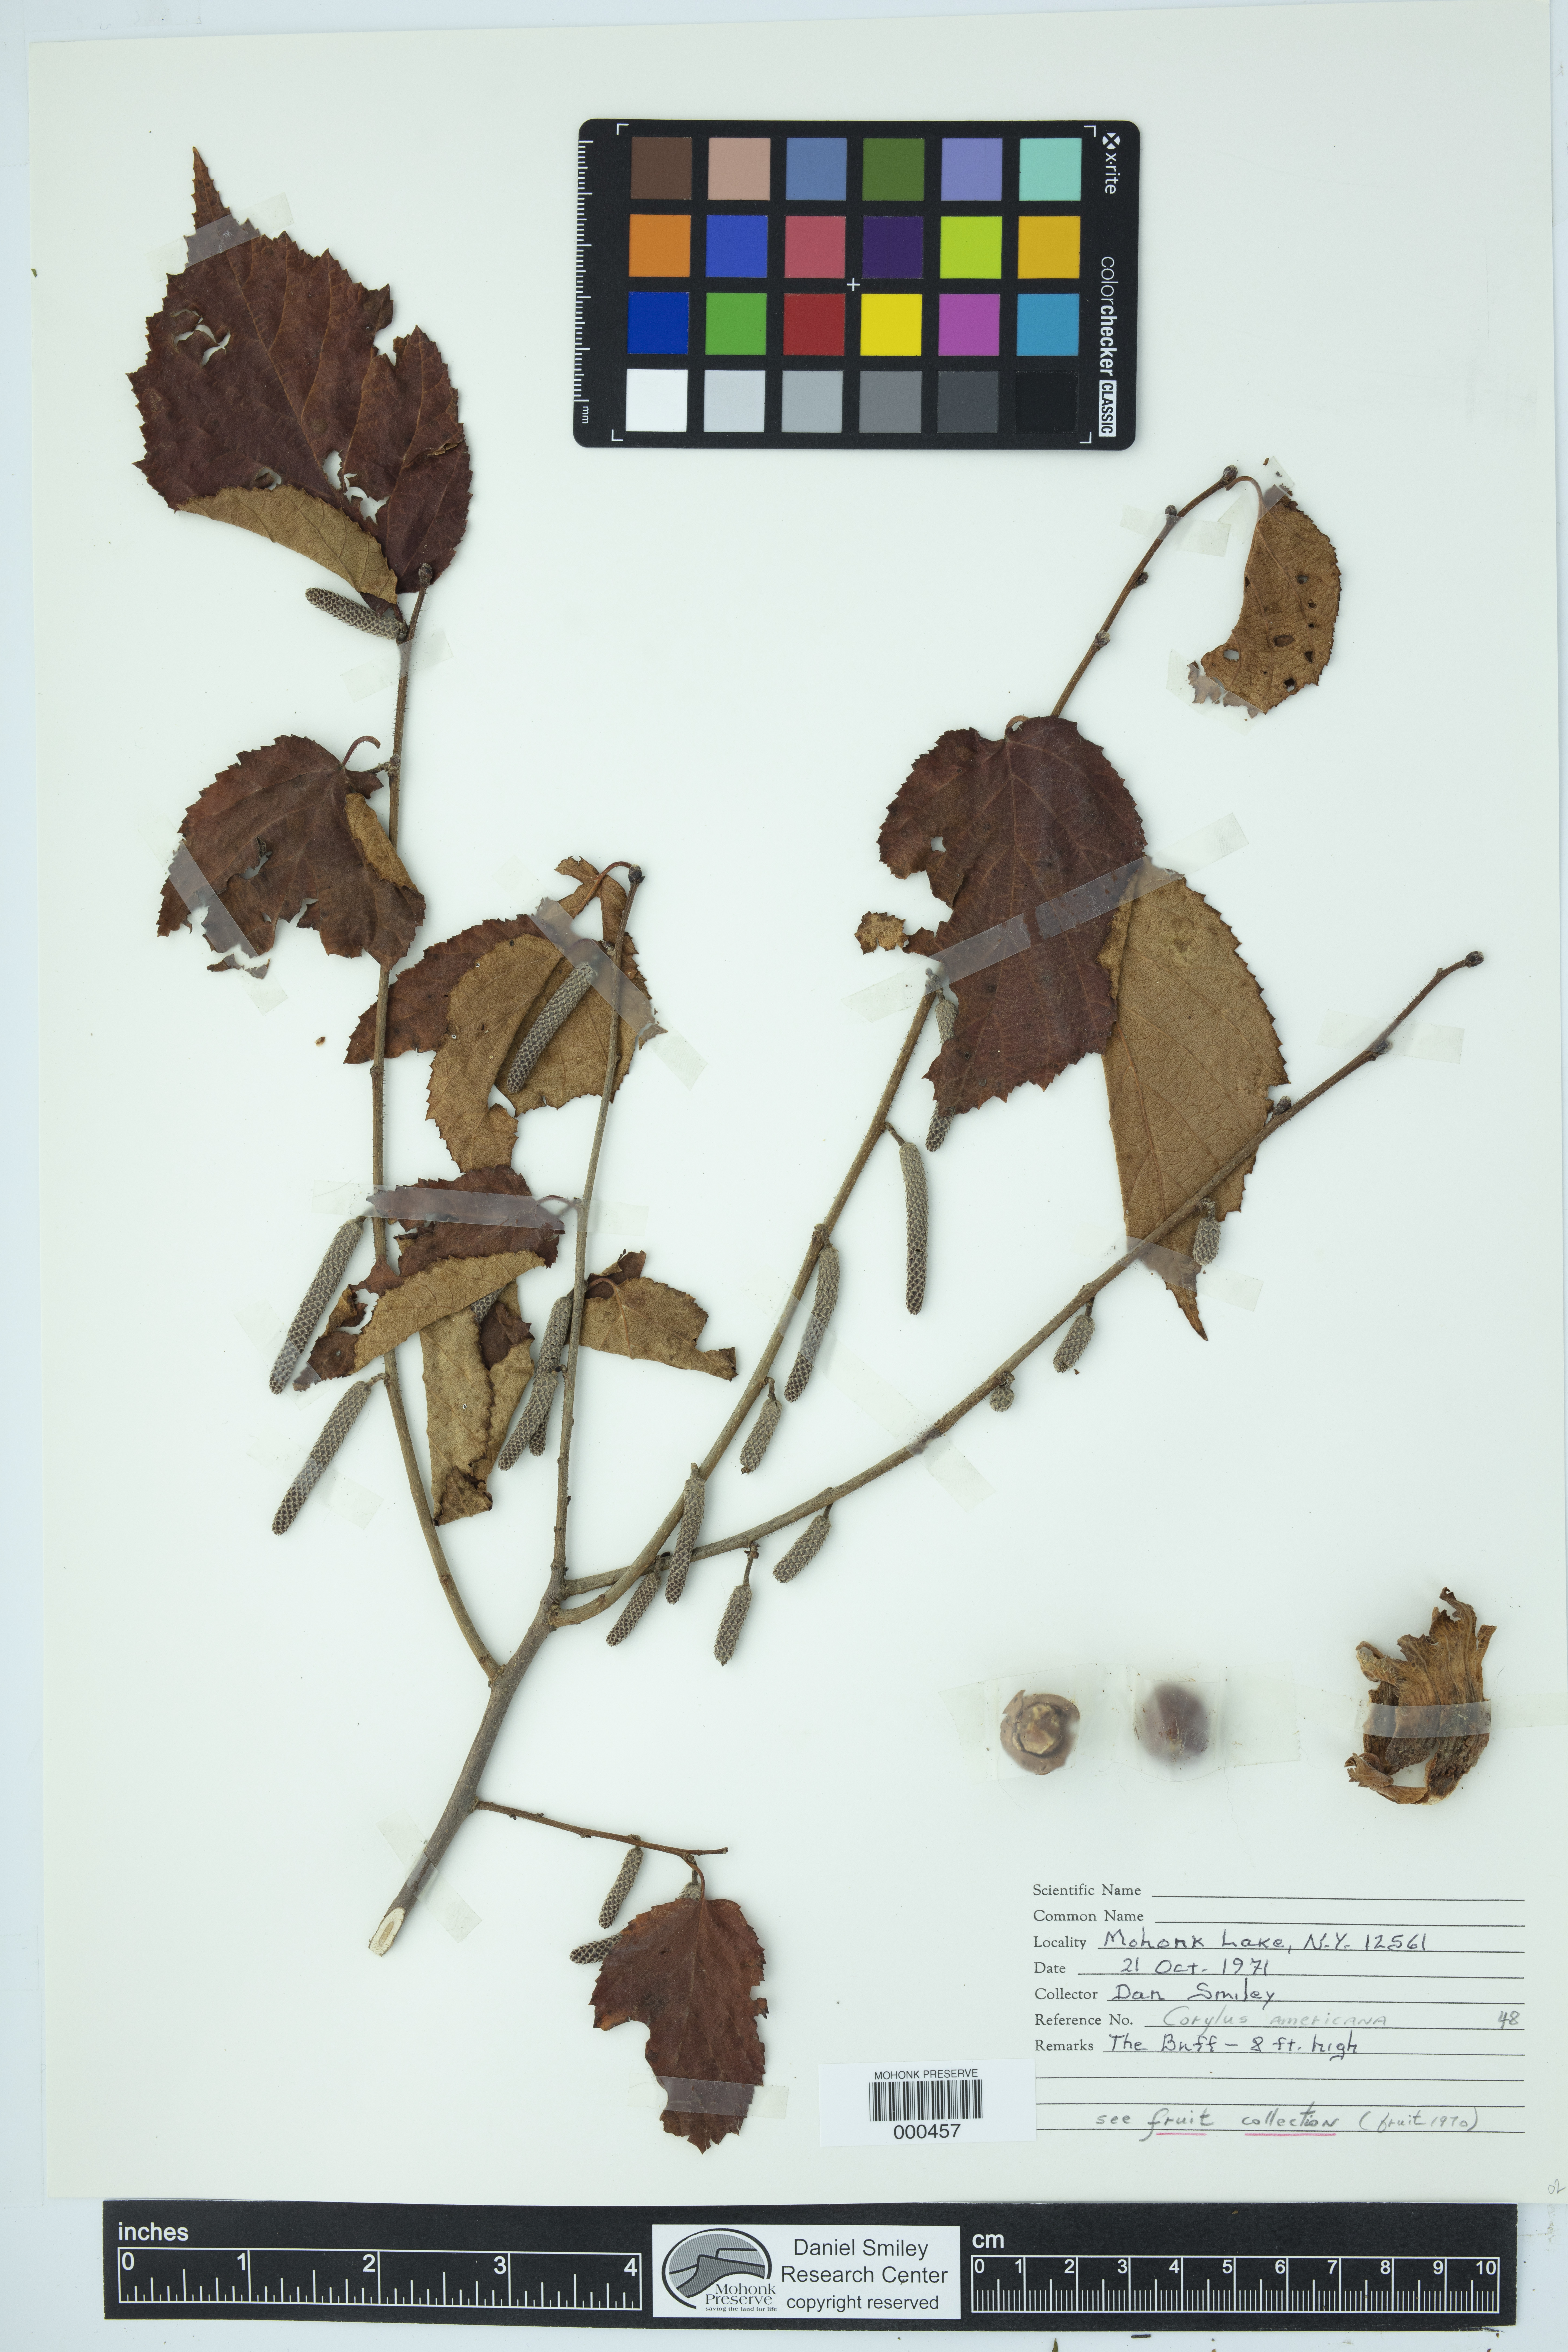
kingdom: Plantae
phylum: Tracheophyta
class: Magnoliopsida
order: Fagales
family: Betulaceae
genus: Corylus
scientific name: Corylus americana
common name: American hazel
